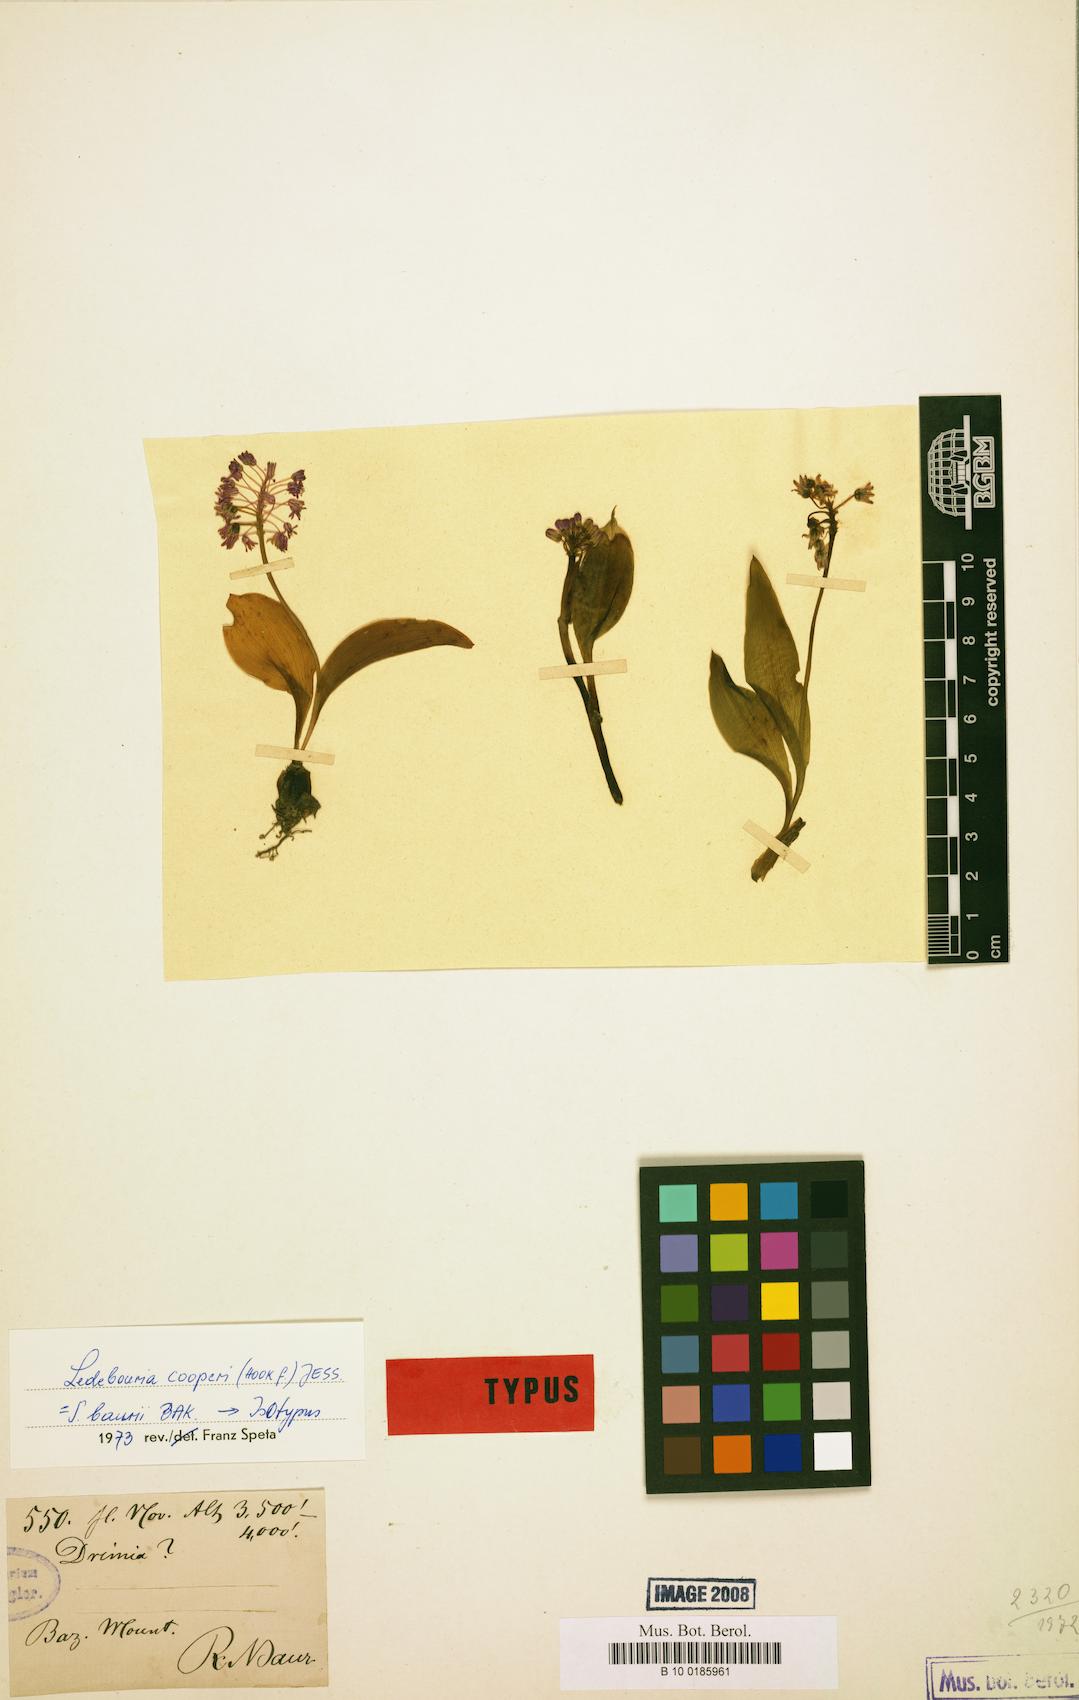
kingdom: Plantae
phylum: Tracheophyta
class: Liliopsida
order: Asparagales
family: Asparagaceae
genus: Ledebouria
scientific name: Ledebouria cooperi
